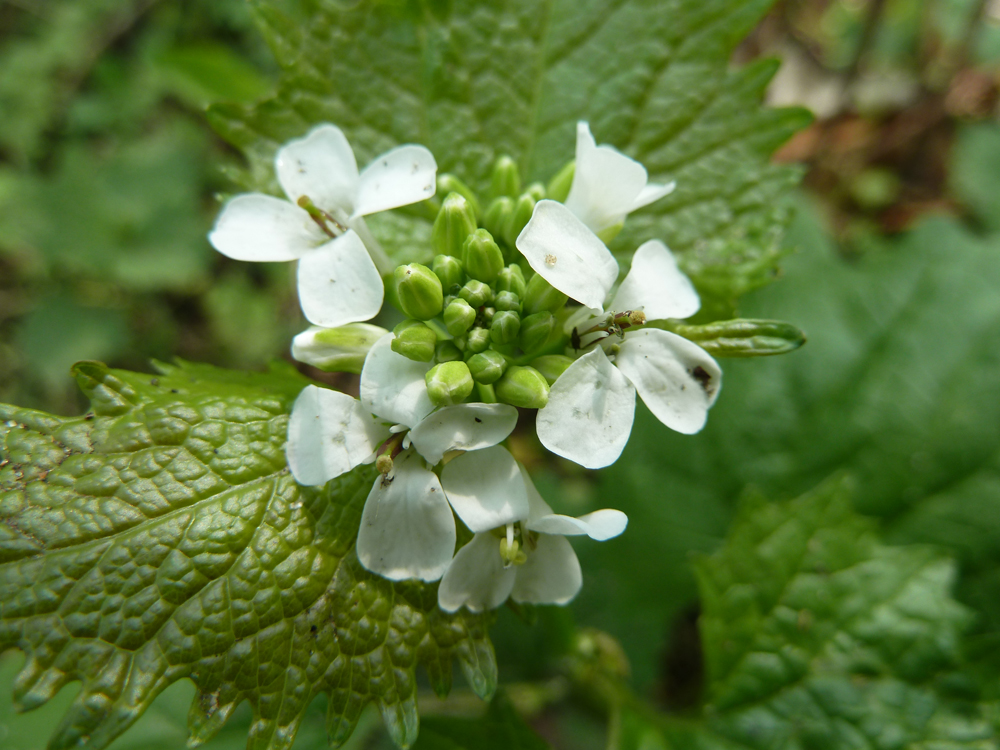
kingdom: Plantae
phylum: Tracheophyta
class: Magnoliopsida
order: Brassicales
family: Brassicaceae
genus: Alliaria
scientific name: Alliaria petiolata
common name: Garlic mustard
